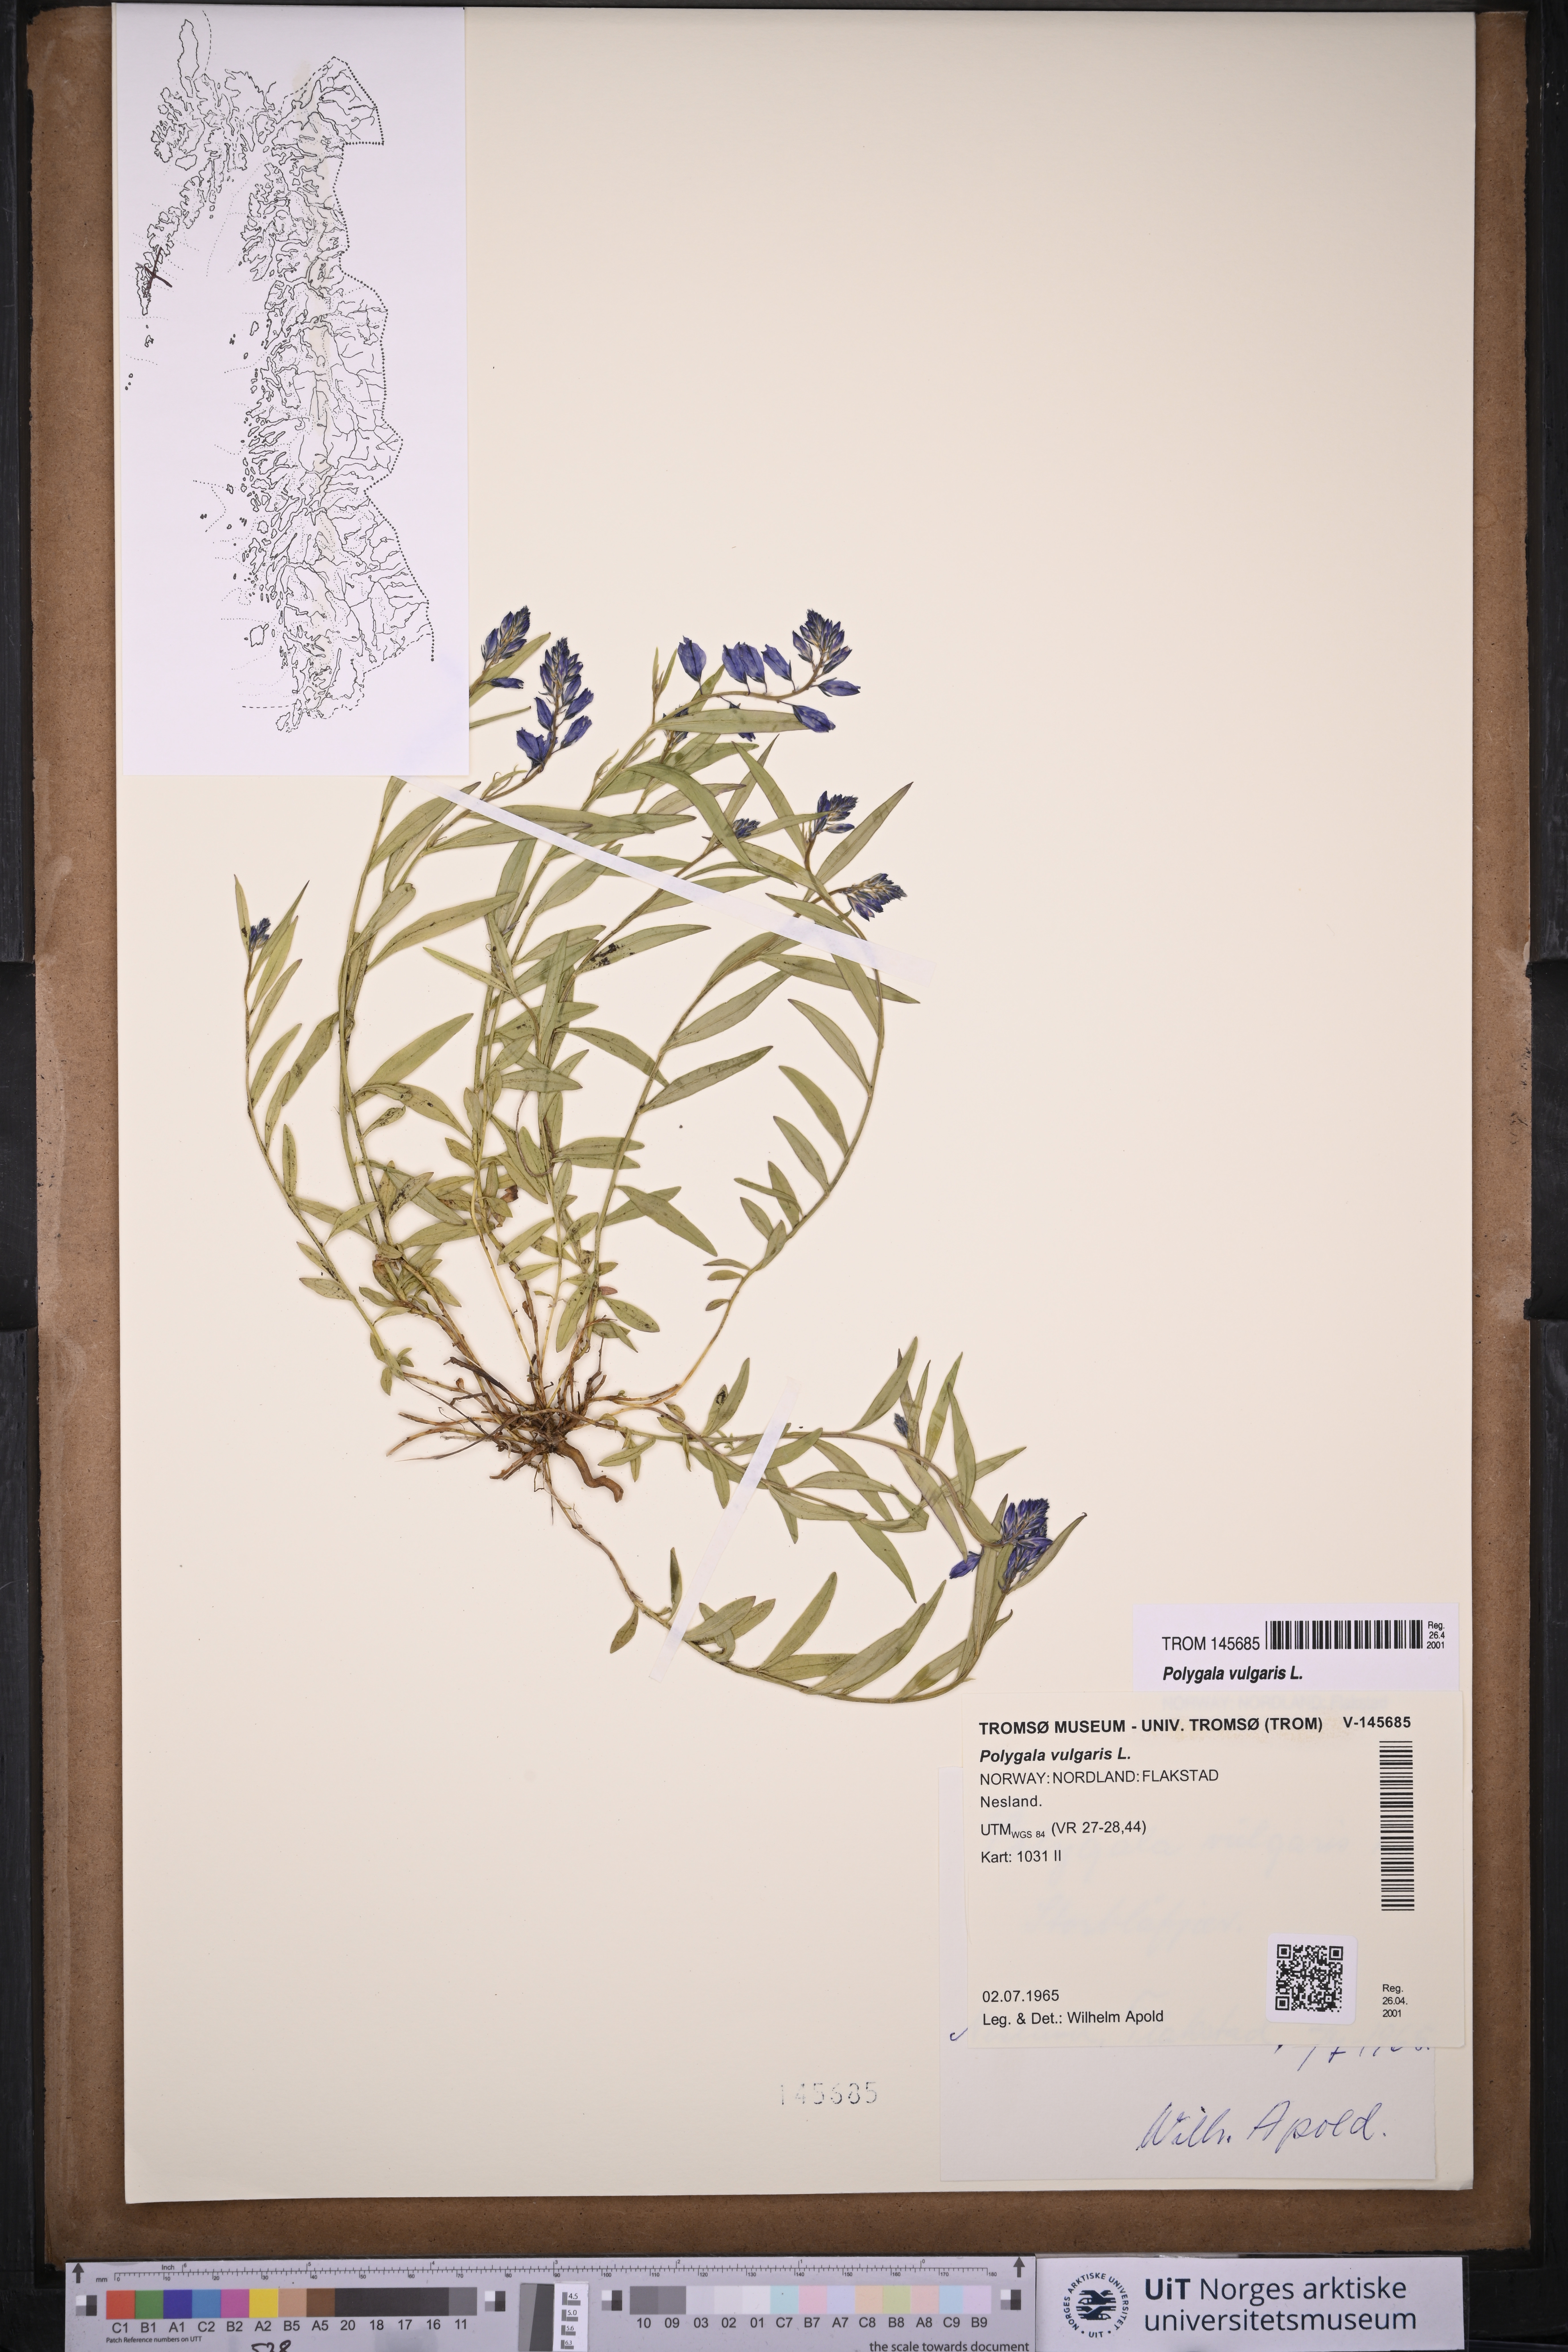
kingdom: Plantae
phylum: Tracheophyta
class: Magnoliopsida
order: Fabales
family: Polygalaceae
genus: Polygala
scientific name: Polygala vulgaris
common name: Common milkwort
